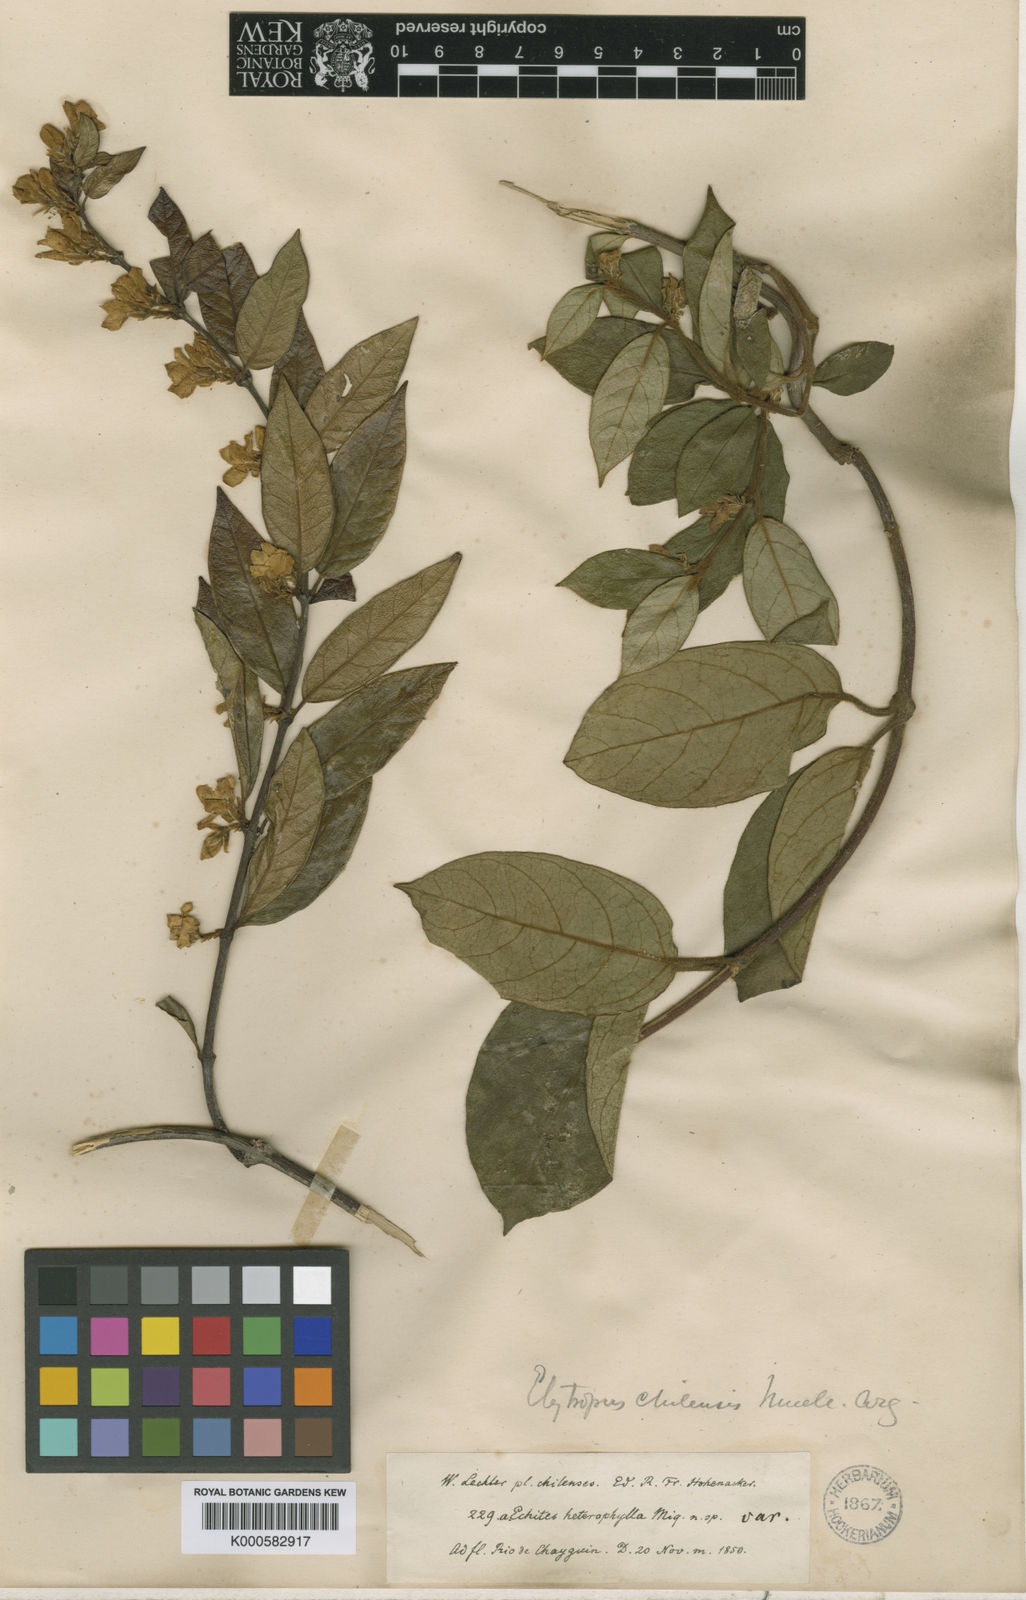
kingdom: Plantae
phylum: Tracheophyta
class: Magnoliopsida
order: Gentianales
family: Apocynaceae
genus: Elytropus
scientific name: Elytropus
